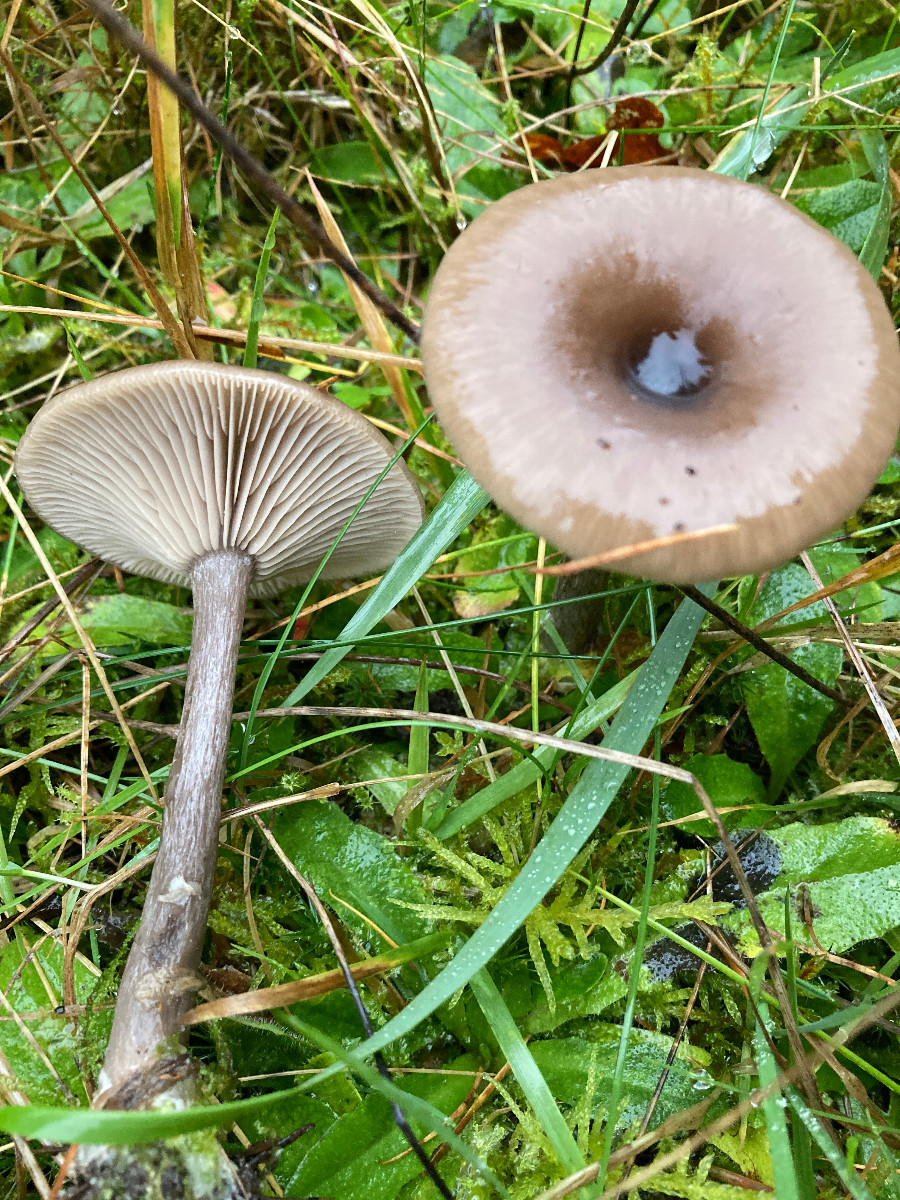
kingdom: Fungi
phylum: Basidiomycota
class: Agaricomycetes
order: Agaricales
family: Pseudoclitocybaceae
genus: Pseudoclitocybe
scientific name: Pseudoclitocybe cyathiformis
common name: almindelig bægertragthat
